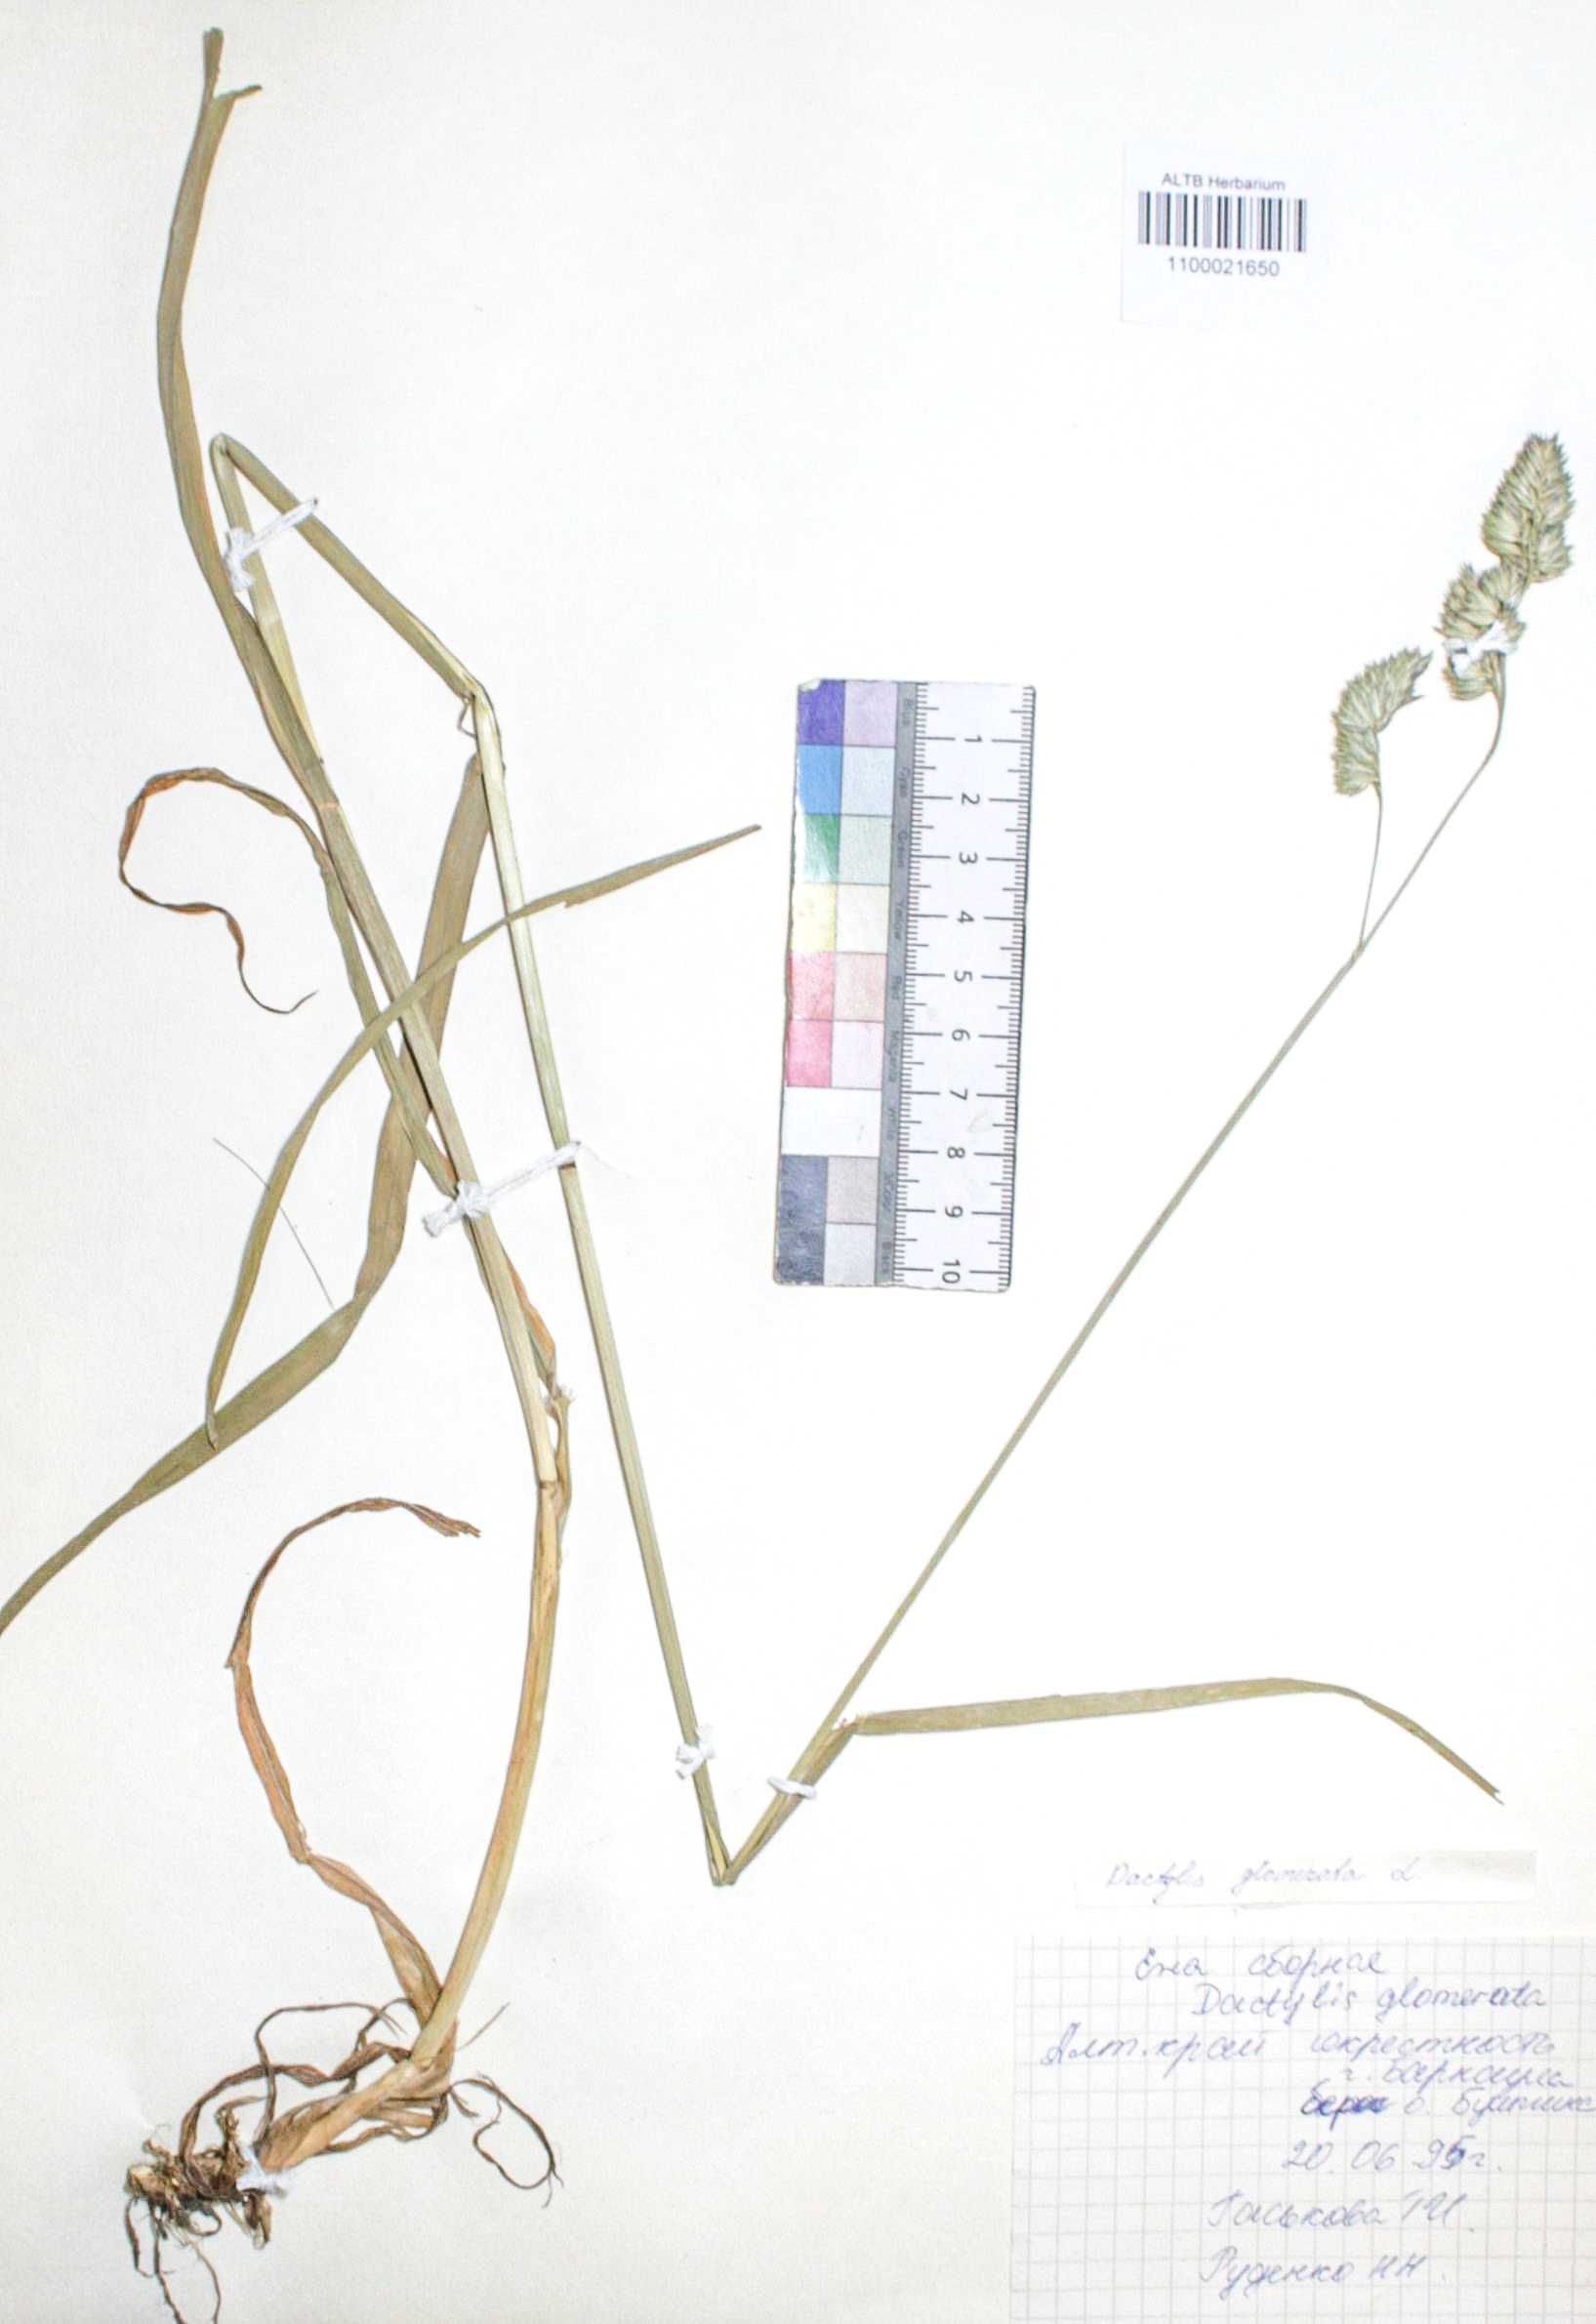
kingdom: Plantae
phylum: Tracheophyta
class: Liliopsida
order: Poales
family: Poaceae
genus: Dactylis
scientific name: Dactylis glomerata
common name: Orchardgrass
